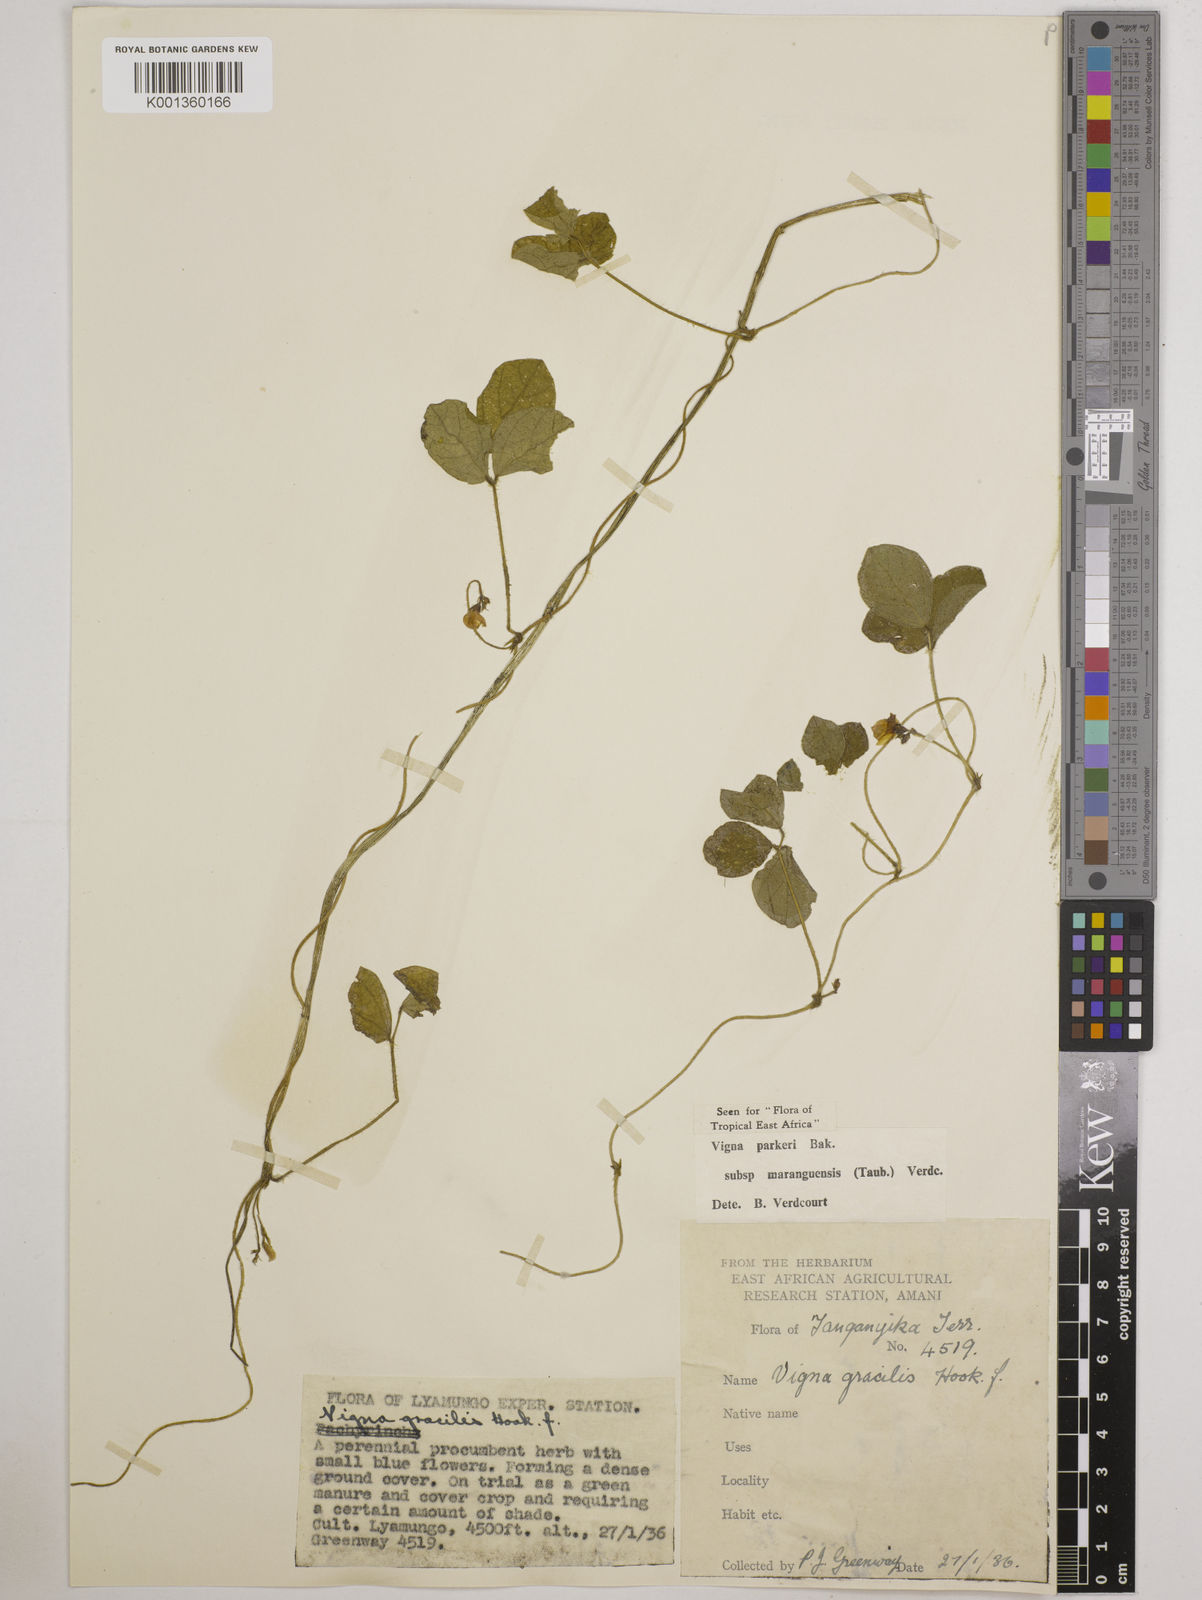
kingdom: Plantae
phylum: Tracheophyta
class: Magnoliopsida
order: Fabales
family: Fabaceae
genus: Vigna
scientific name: Vigna
